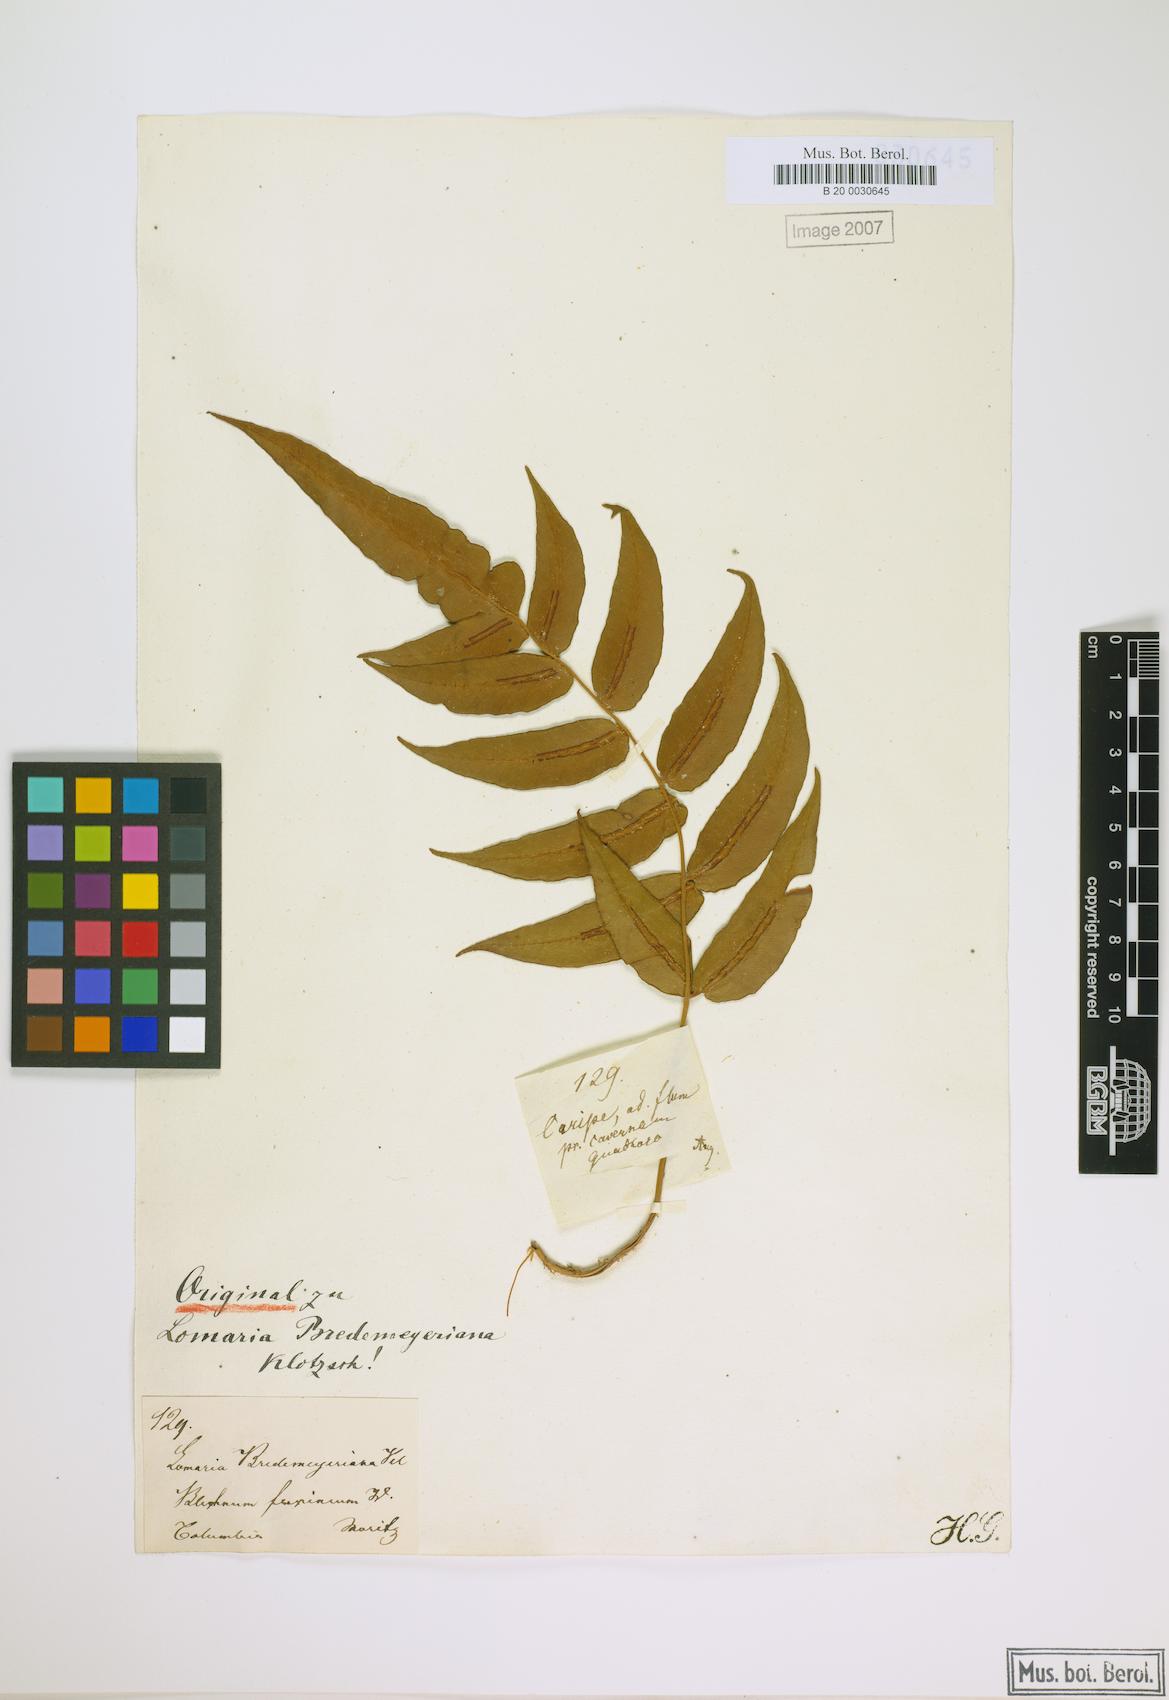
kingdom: Plantae
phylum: Tracheophyta
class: Polypodiopsida
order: Polypodiales
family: Blechnaceae
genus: Blechnum
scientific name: Blechnum gracile
